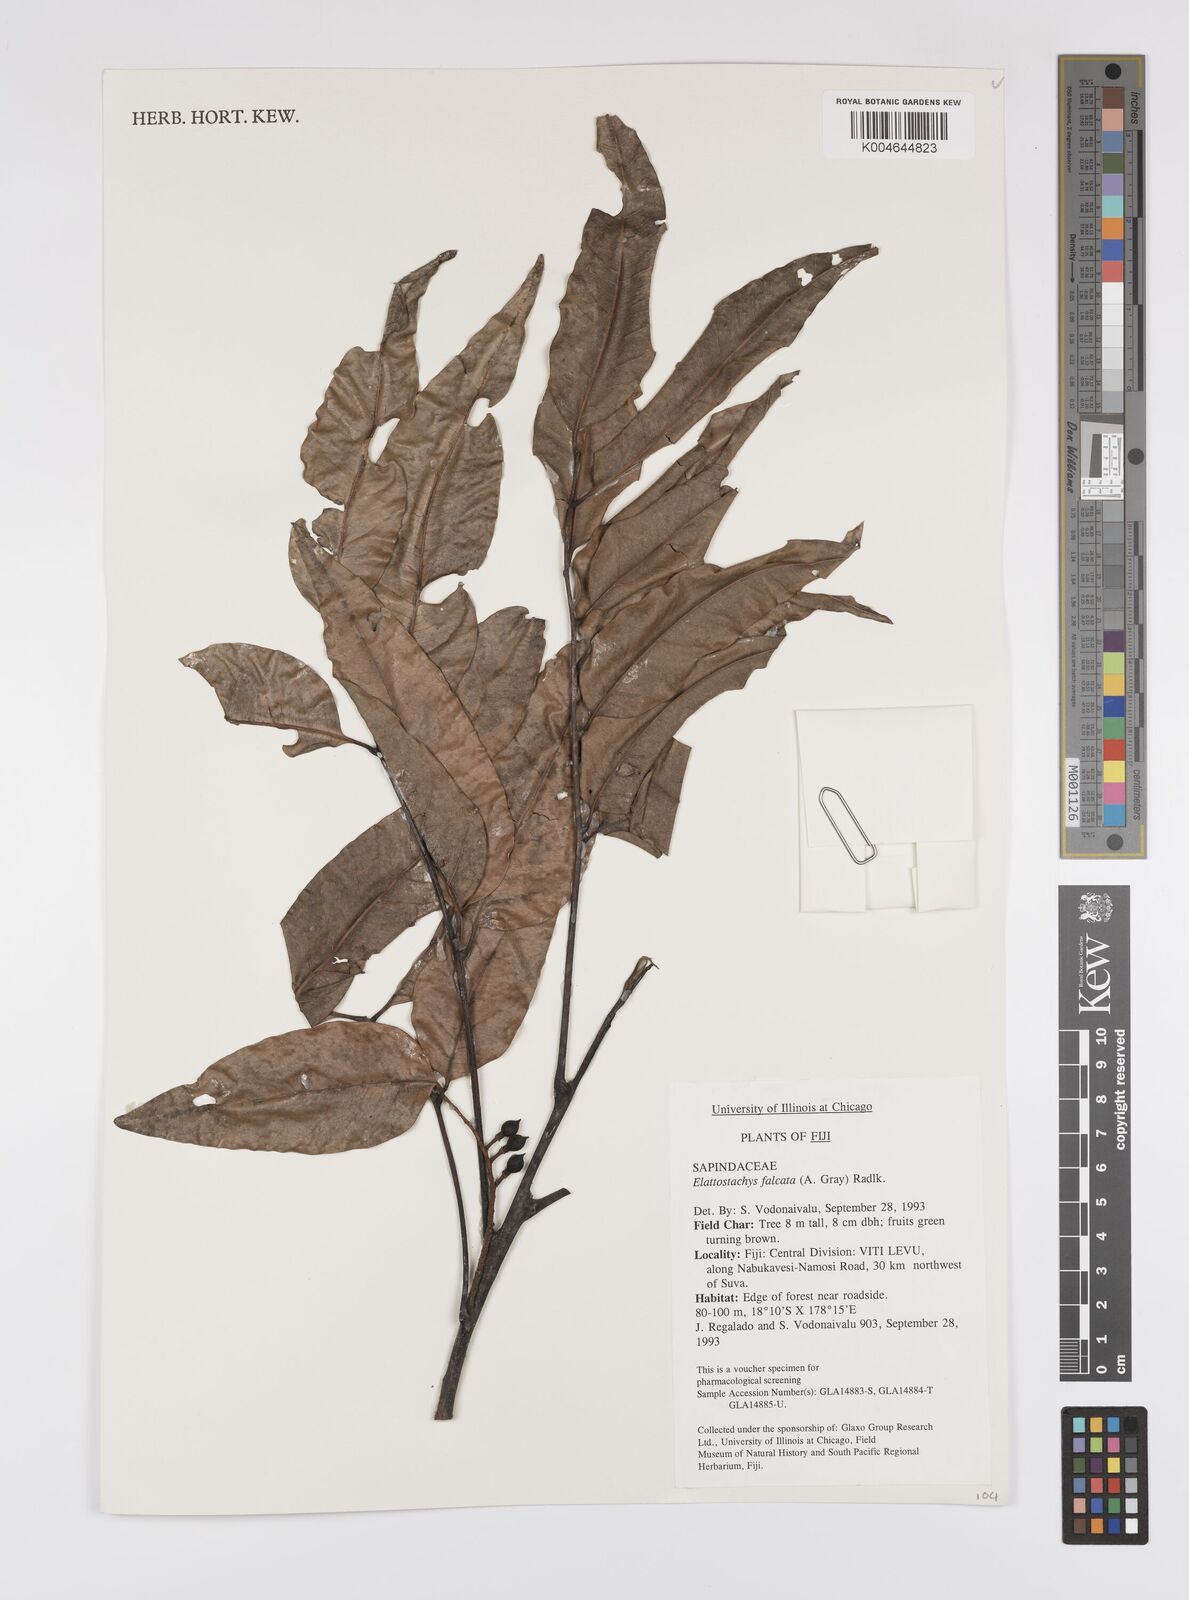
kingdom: Plantae
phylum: Tracheophyta
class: Magnoliopsida
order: Sapindales
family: Sapindaceae
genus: Elattostachys
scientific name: Elattostachys apetala
